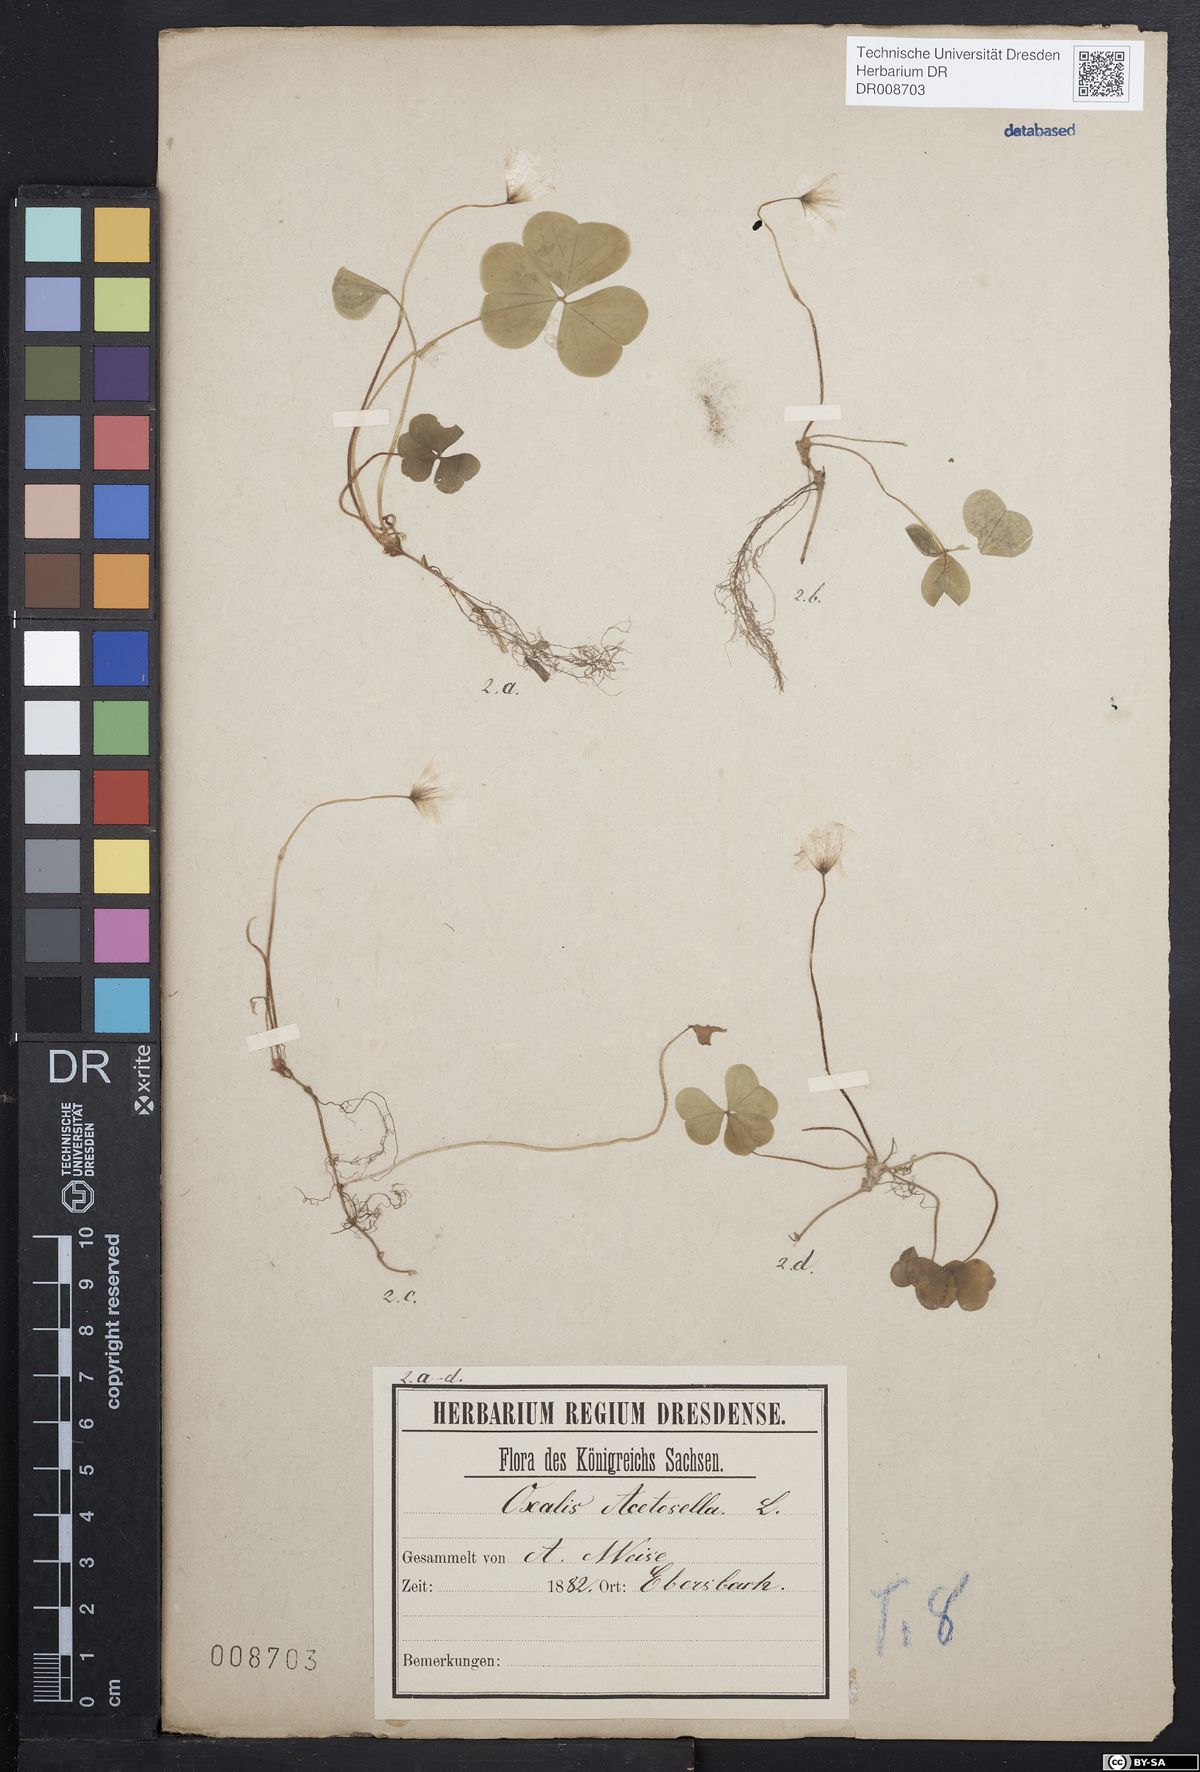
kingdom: Plantae
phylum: Tracheophyta
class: Magnoliopsida
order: Oxalidales
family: Oxalidaceae
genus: Oxalis
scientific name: Oxalis acetosella
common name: Wood-sorrel
